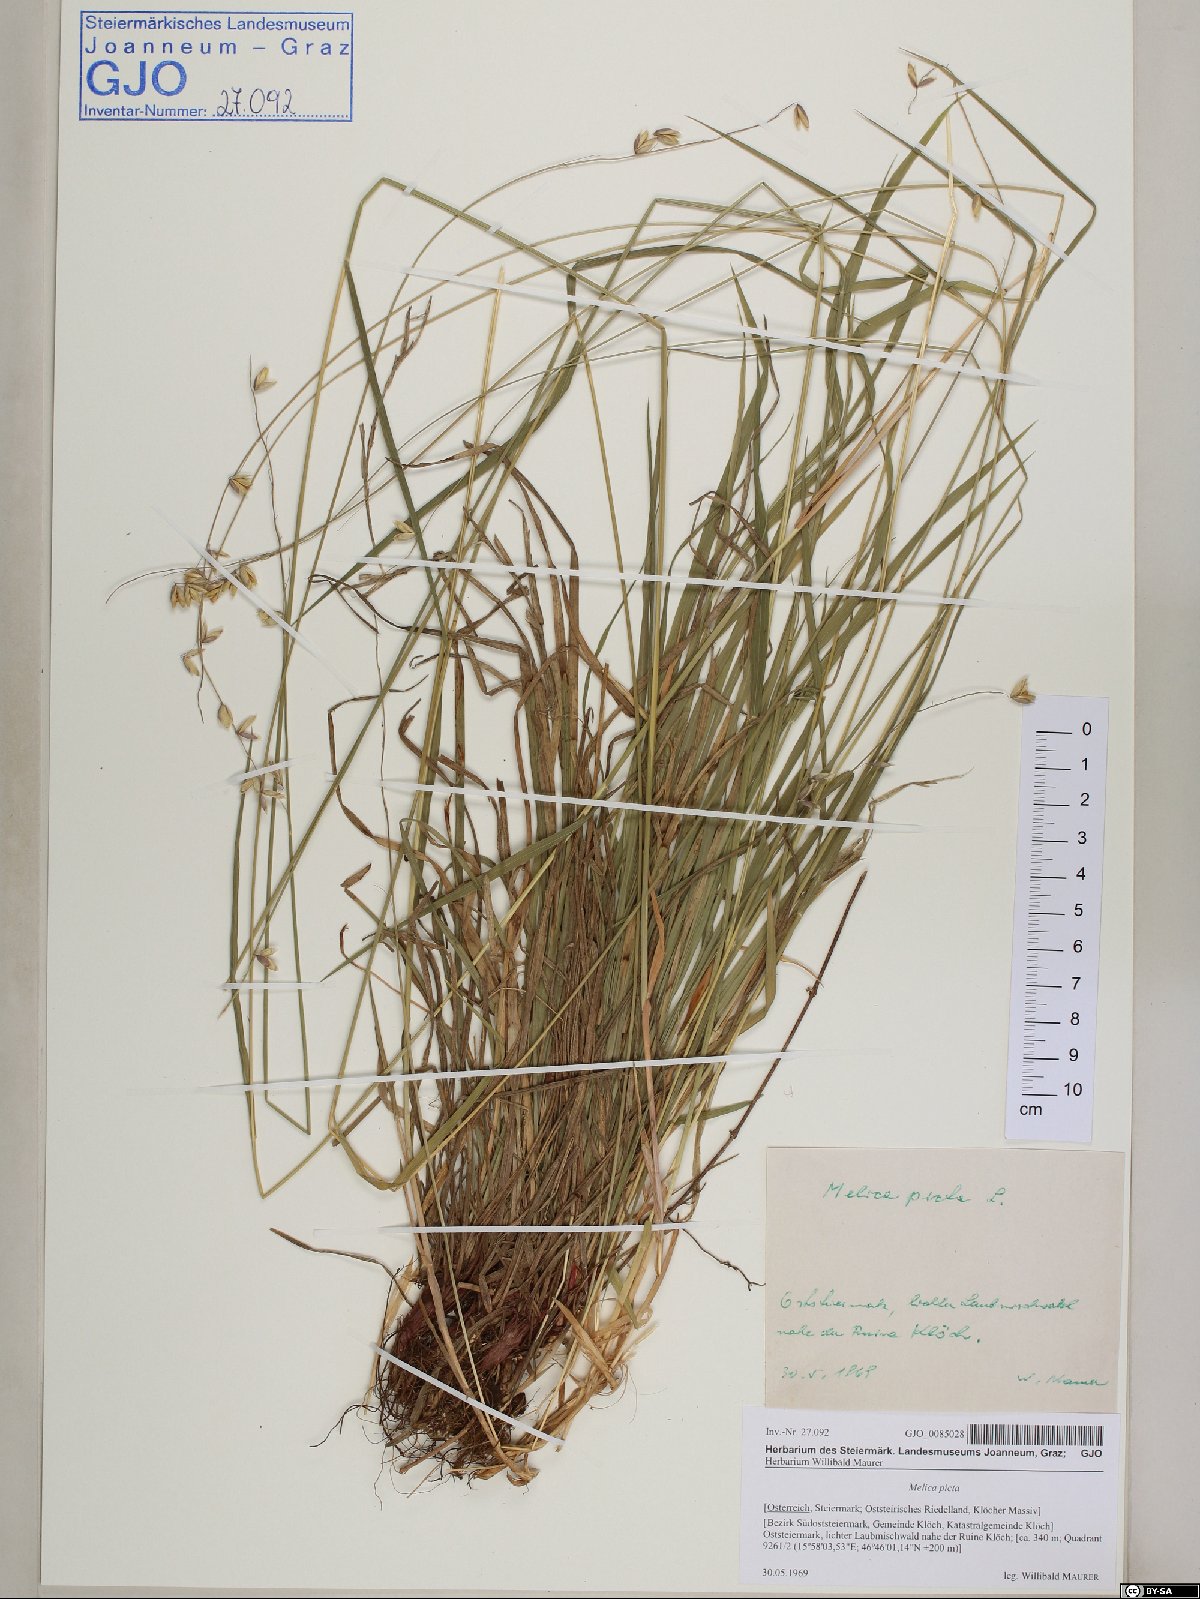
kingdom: Plantae
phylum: Tracheophyta
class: Liliopsida
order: Poales
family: Poaceae
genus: Melica
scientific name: Melica picta
